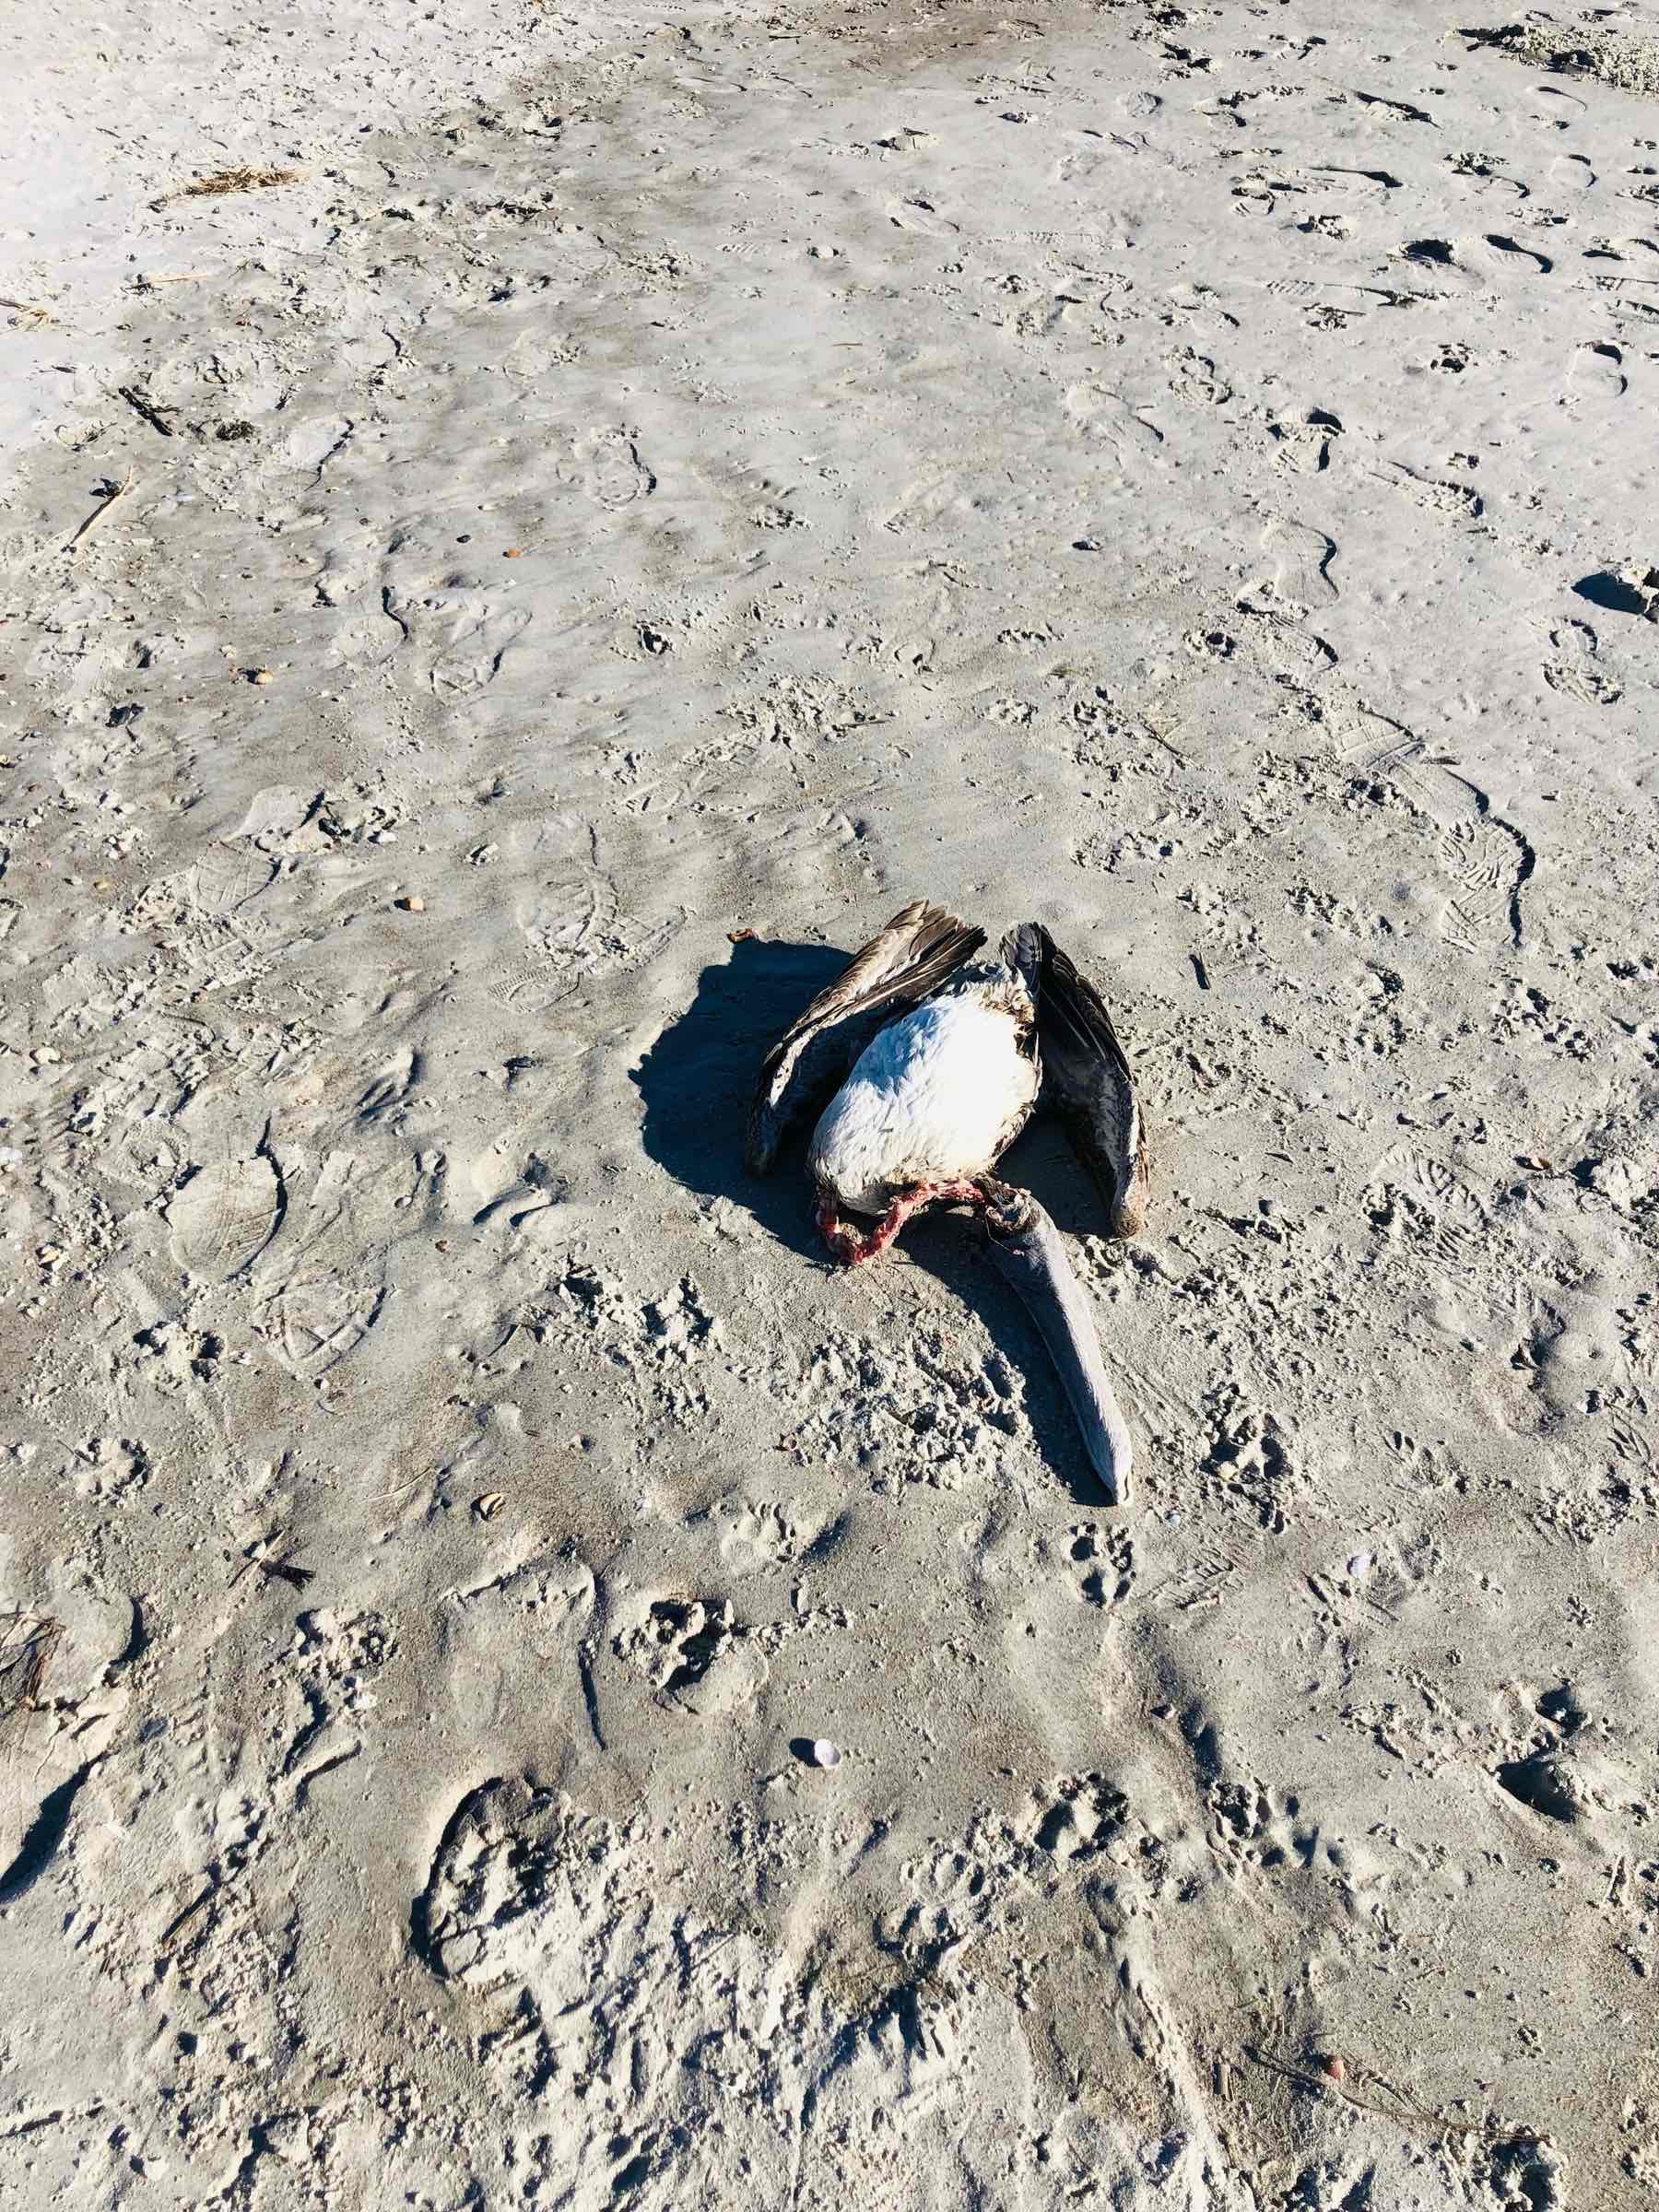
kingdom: Animalia
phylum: Chordata
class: Aves
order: Pelecaniformes
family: Pelecanidae
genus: Pelecanus
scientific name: Pelecanus occidentalis
